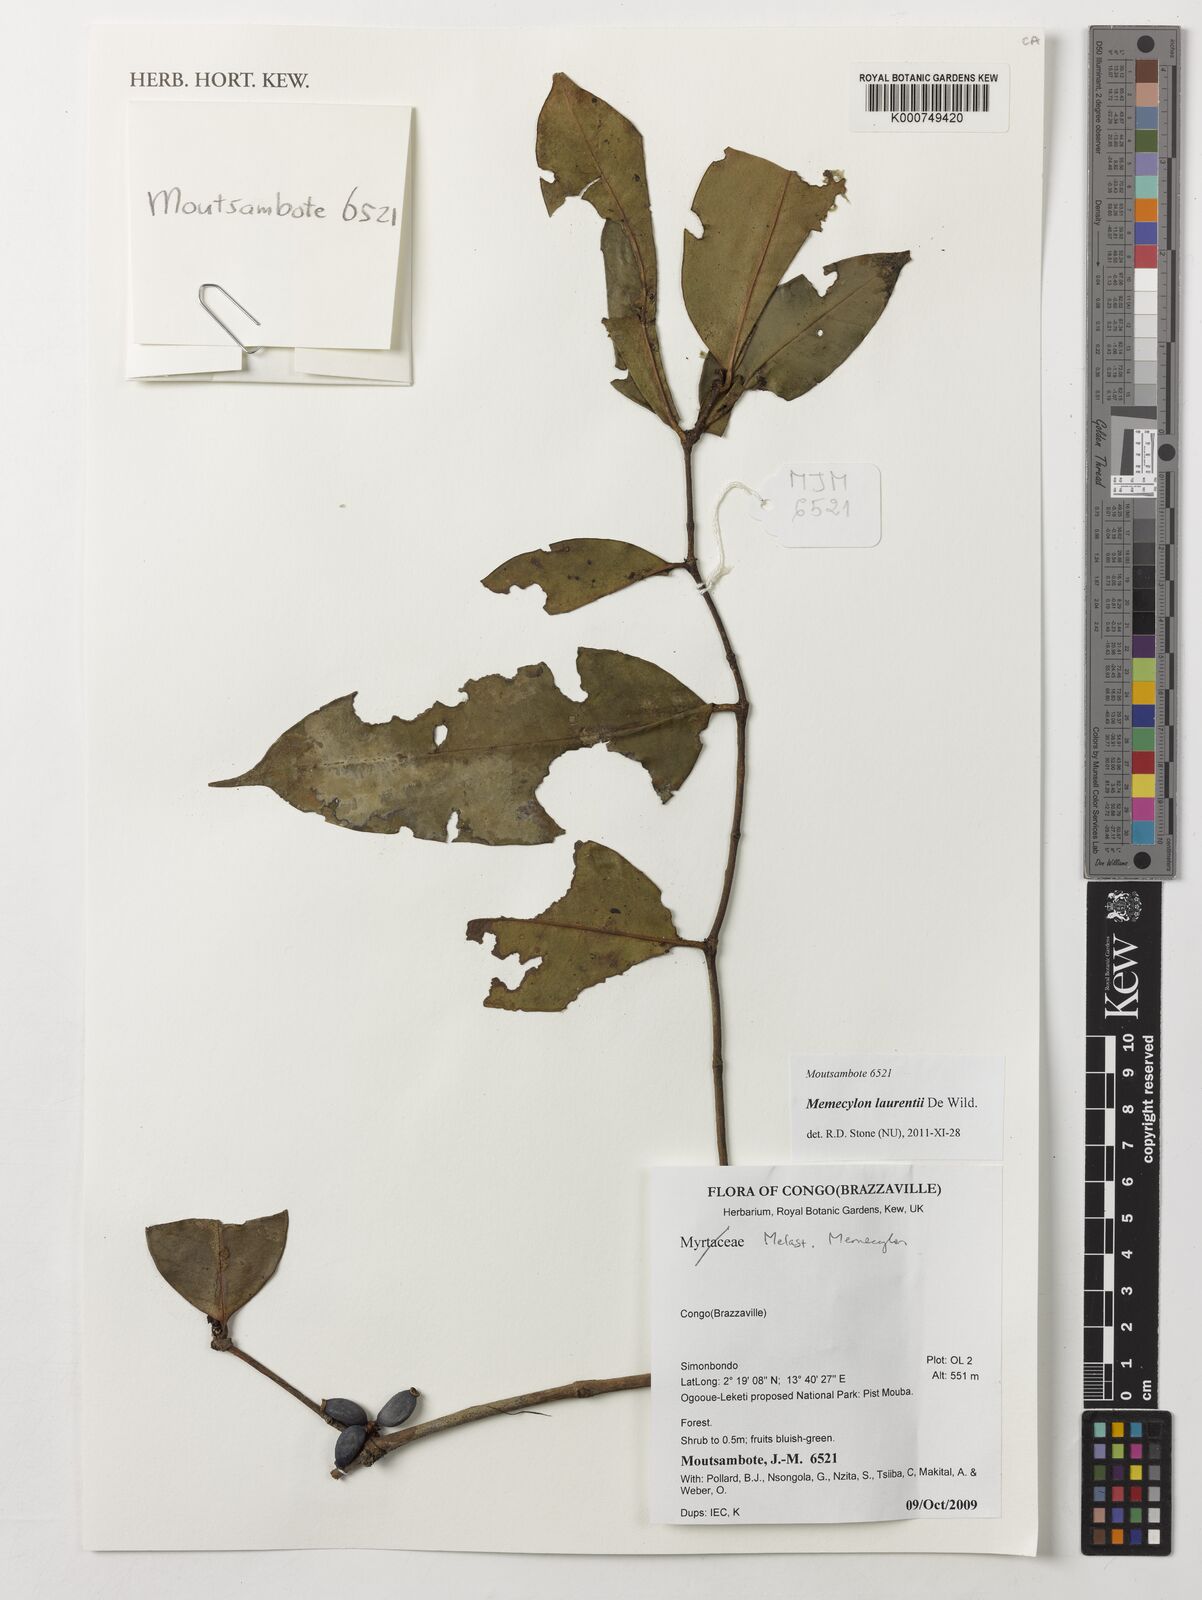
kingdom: Plantae
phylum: Tracheophyta
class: Magnoliopsida
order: Myrtales
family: Melastomataceae
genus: Memecylon
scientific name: Memecylon laurentii
